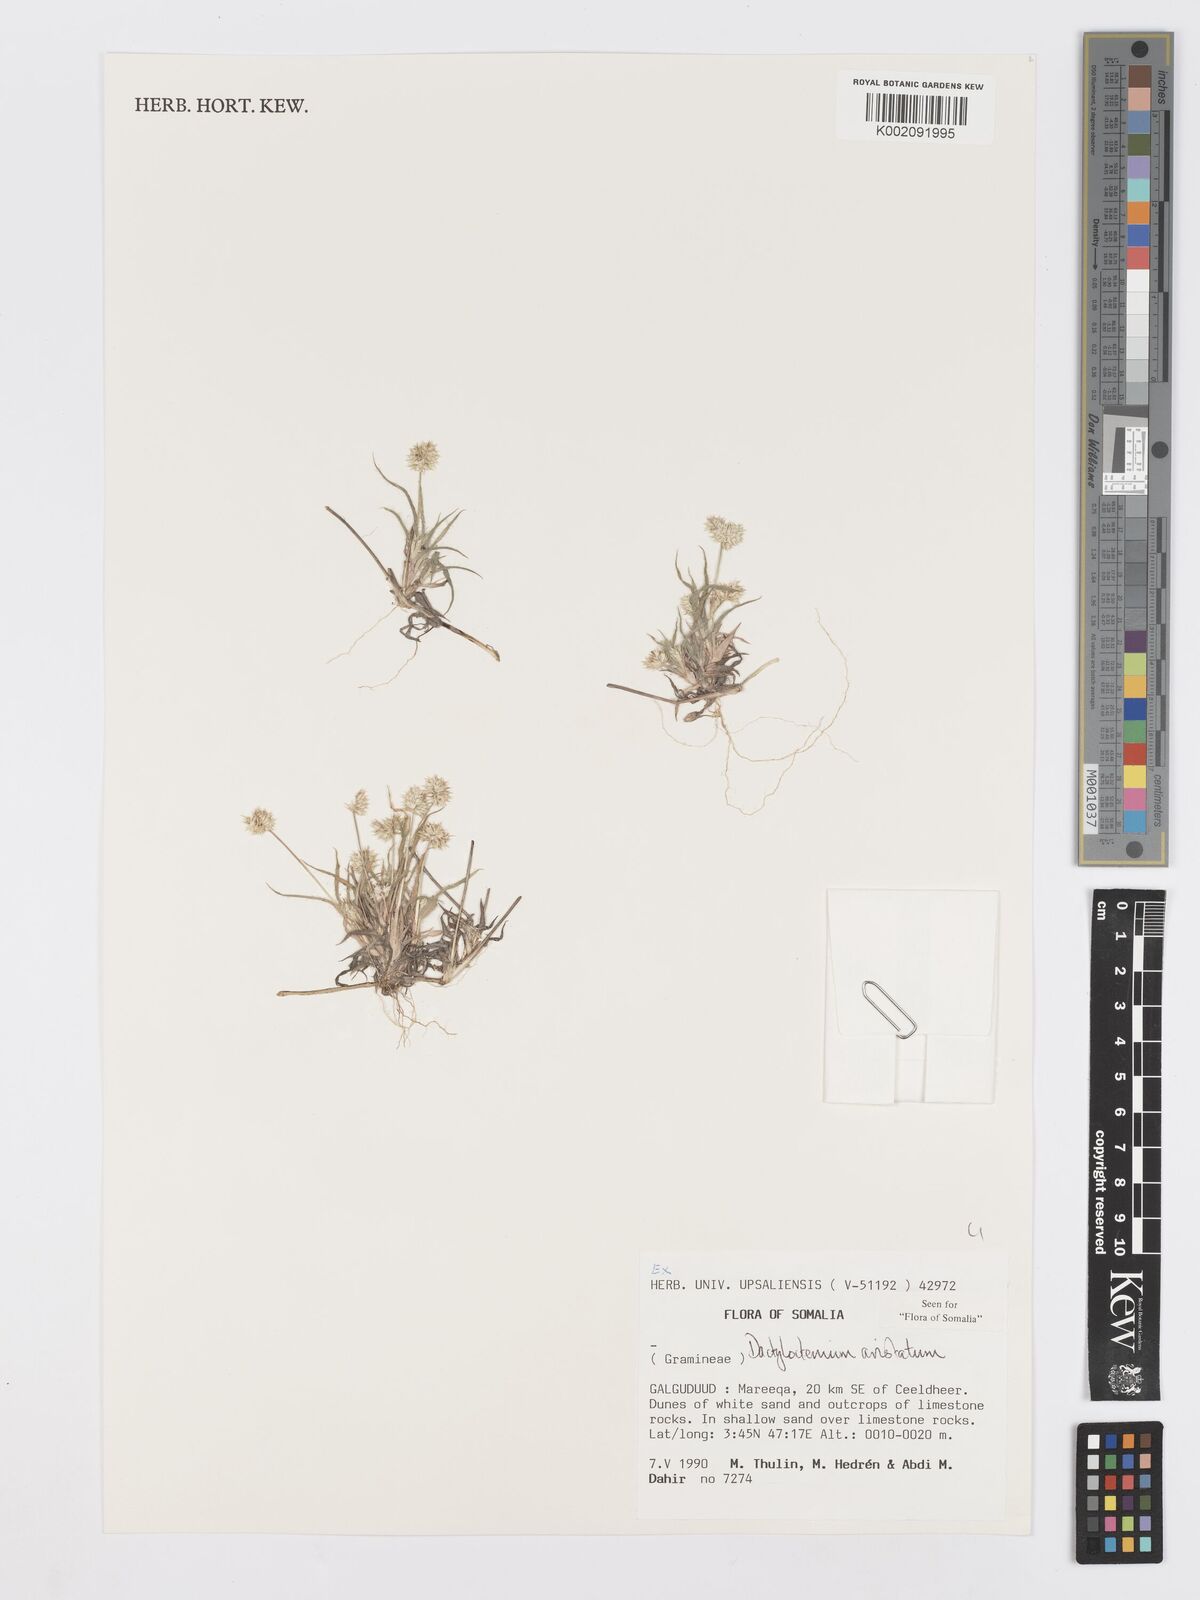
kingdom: Plantae
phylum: Tracheophyta
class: Liliopsida
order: Poales
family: Poaceae
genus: Dactyloctenium
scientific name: Dactyloctenium aristatum
